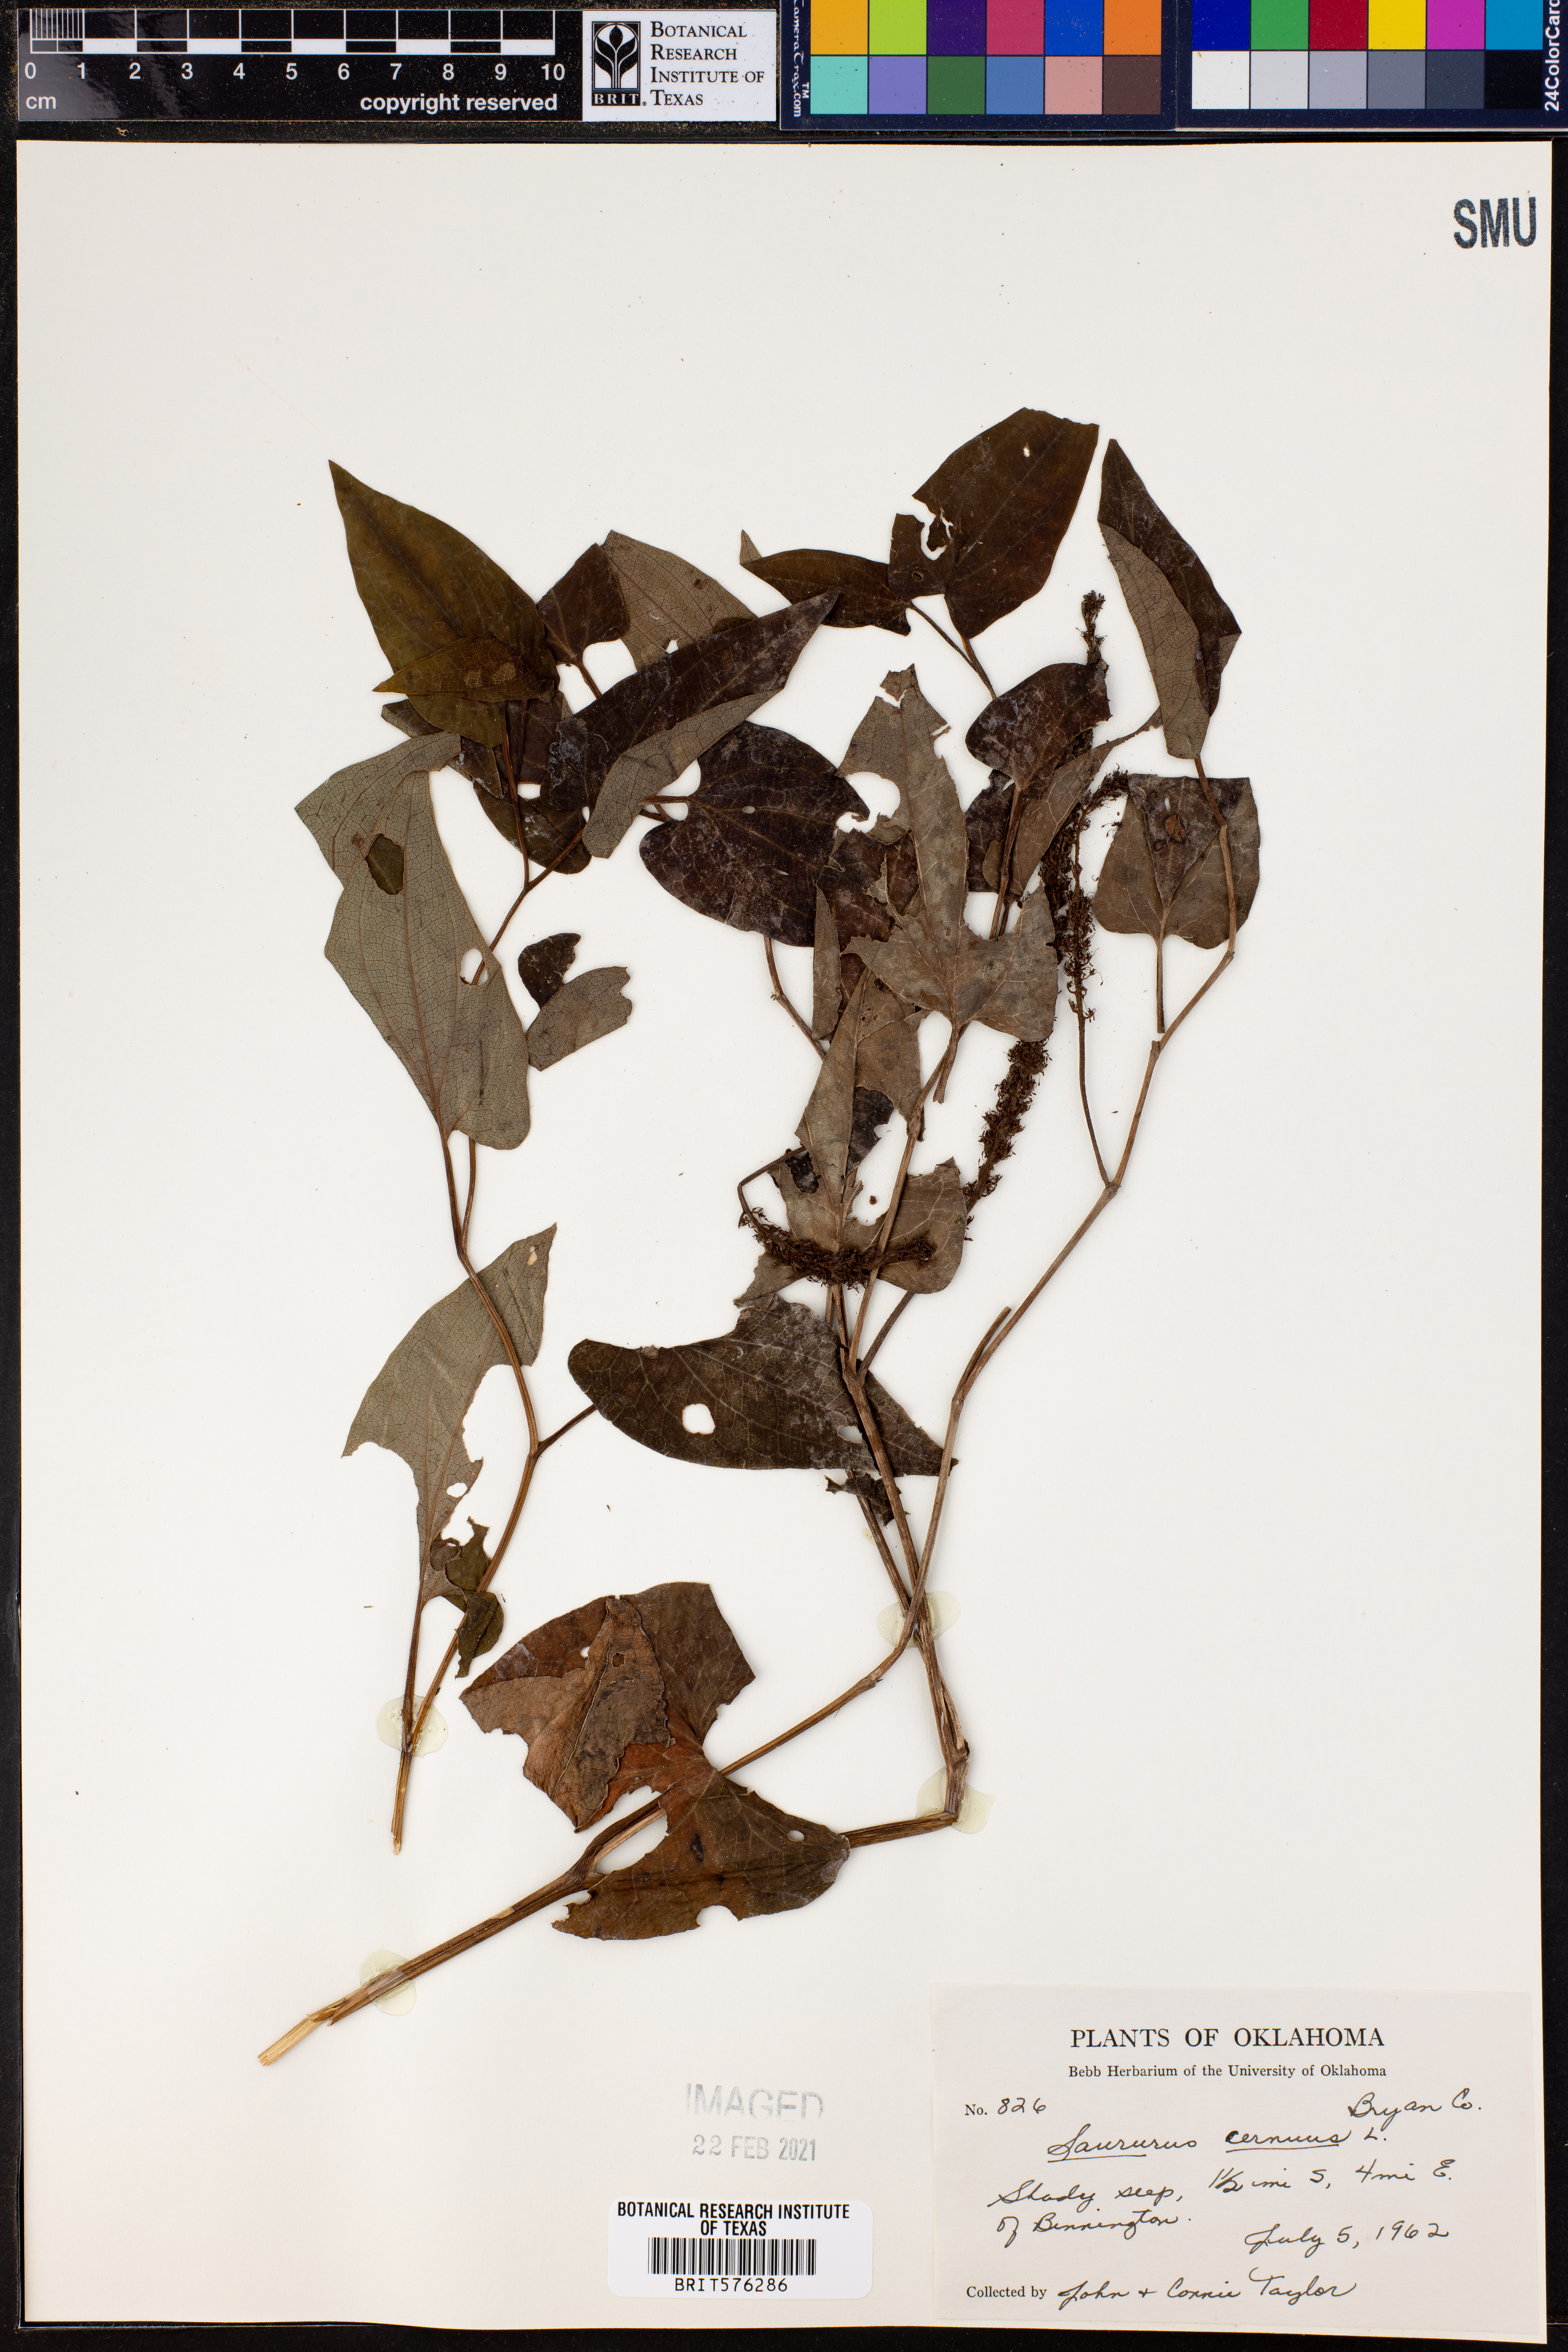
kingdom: Plantae
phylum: Tracheophyta
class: Magnoliopsida
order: Piperales
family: Saururaceae
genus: Saururus
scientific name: Saururus cernuus
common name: Lizard's-tail
